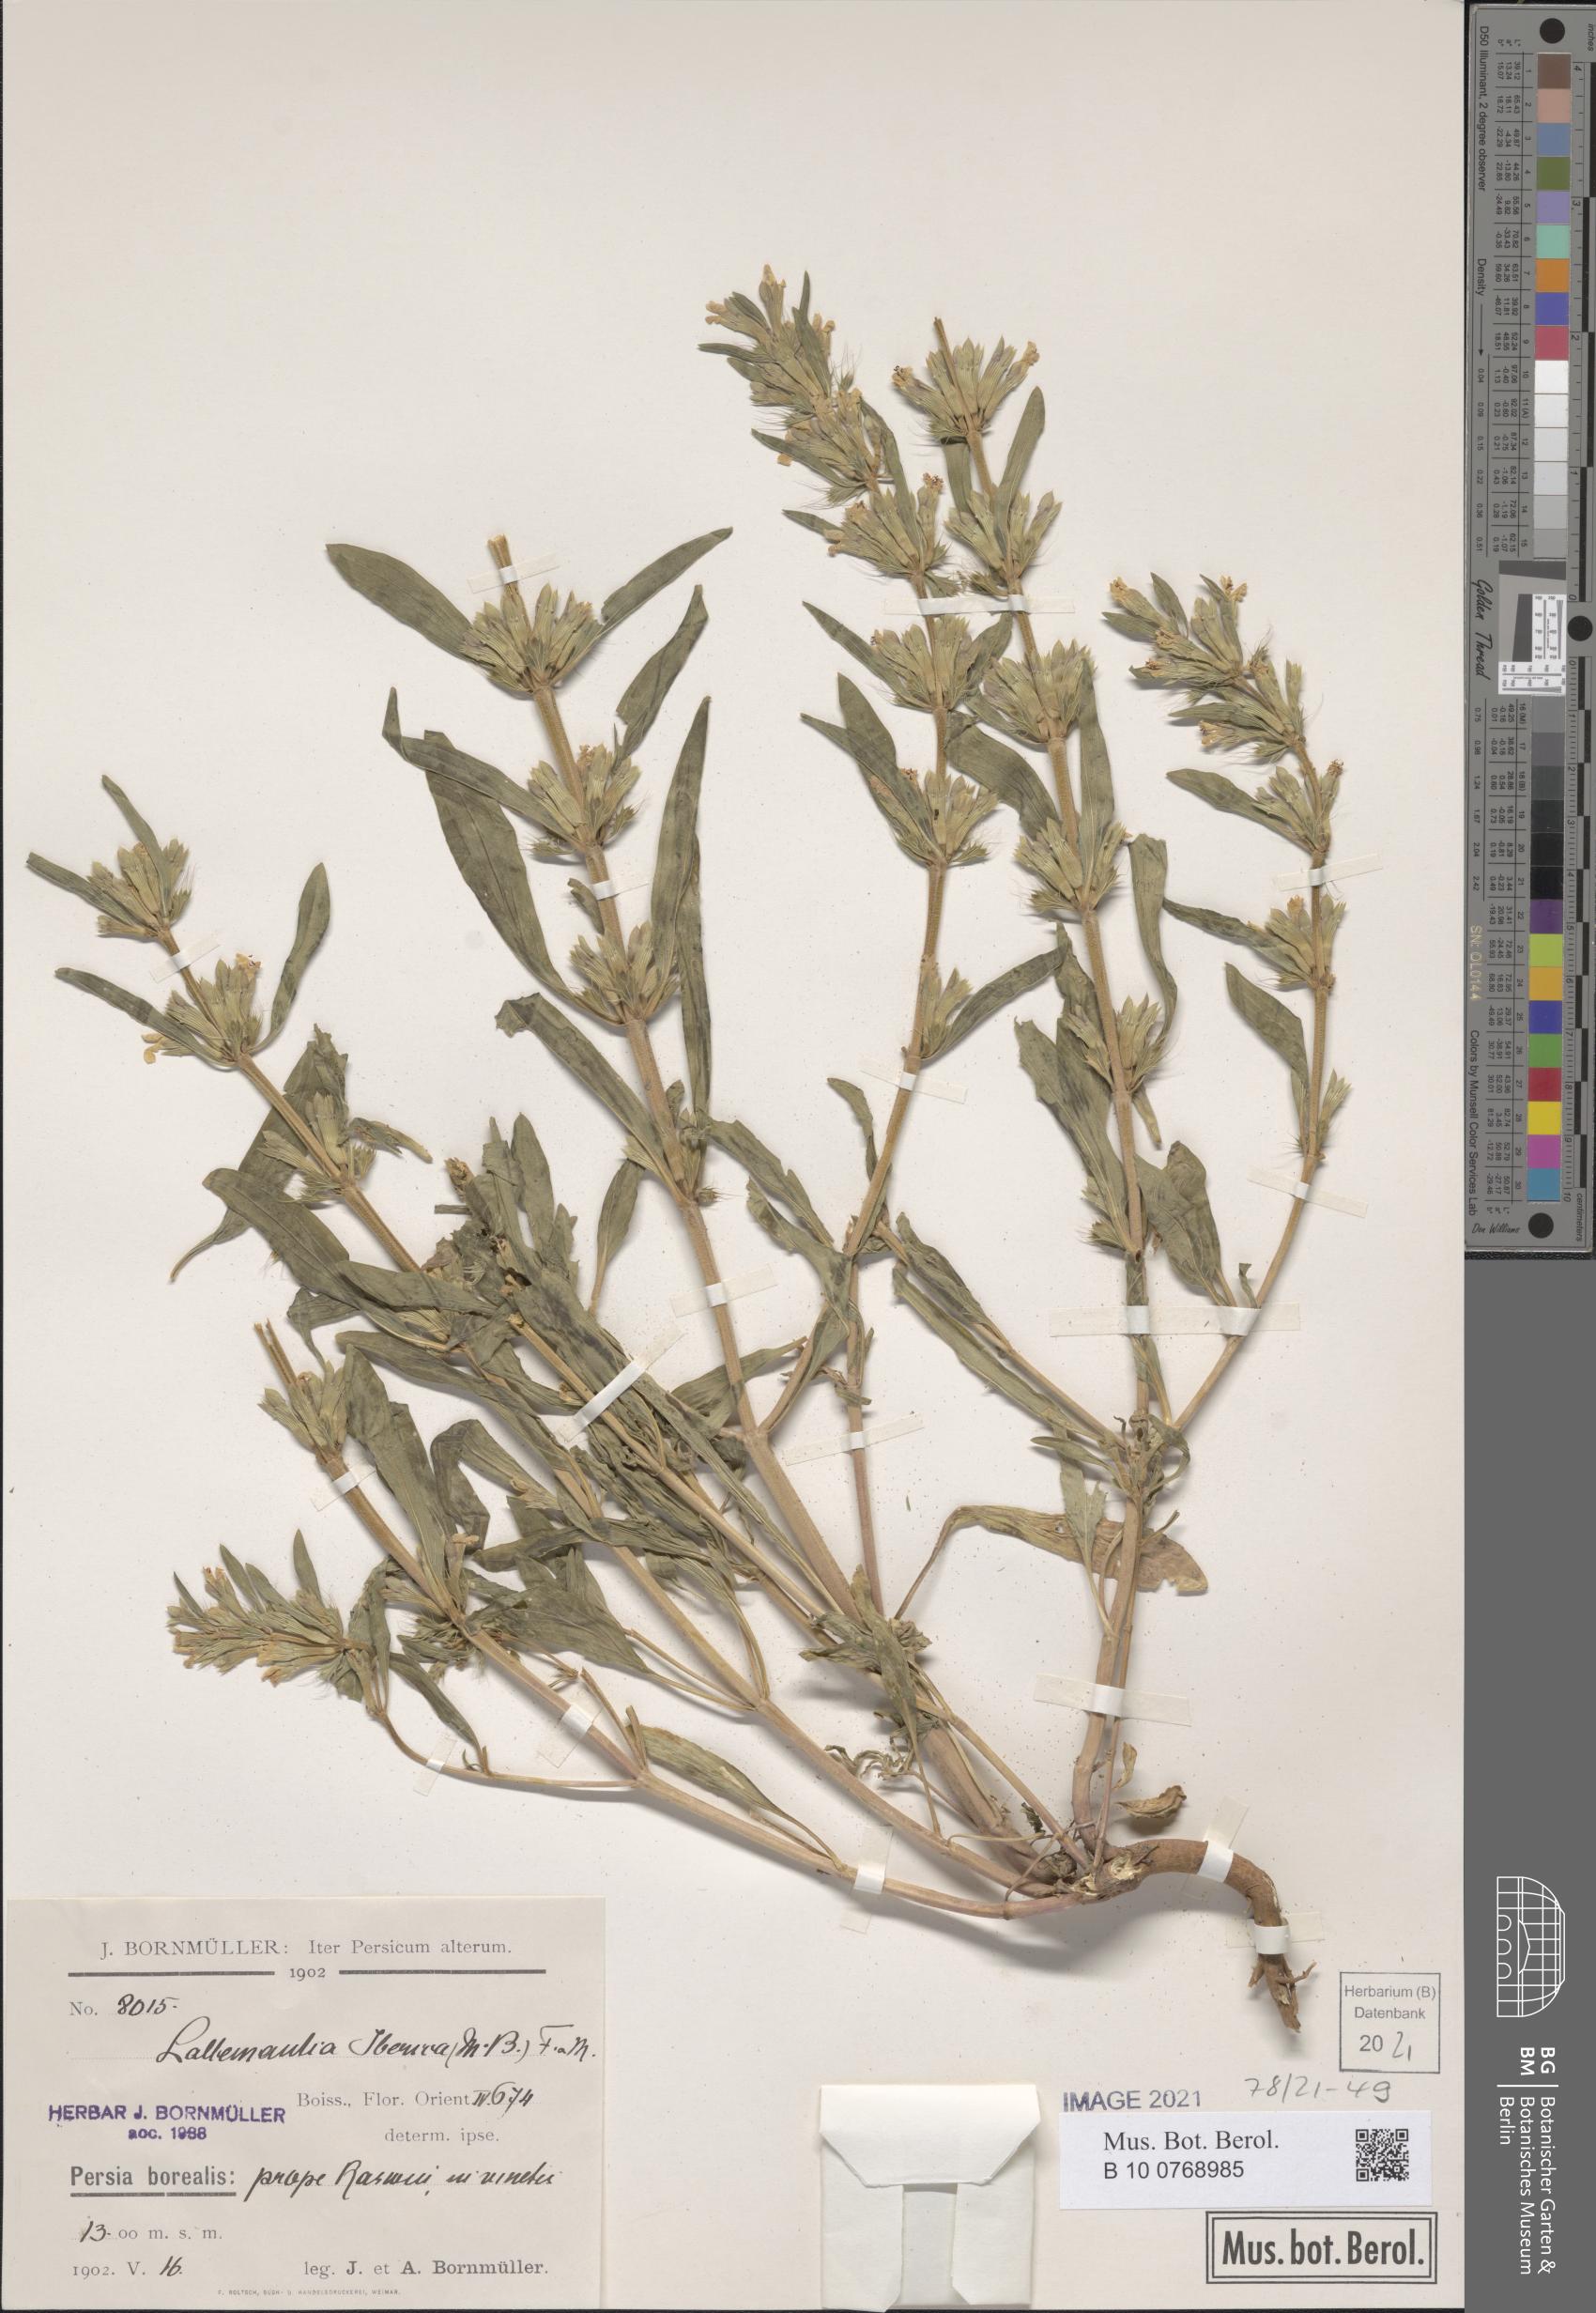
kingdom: Plantae
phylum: Tracheophyta
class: Magnoliopsida
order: Lamiales
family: Lamiaceae
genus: Lallemantia
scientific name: Lallemantia iberica
